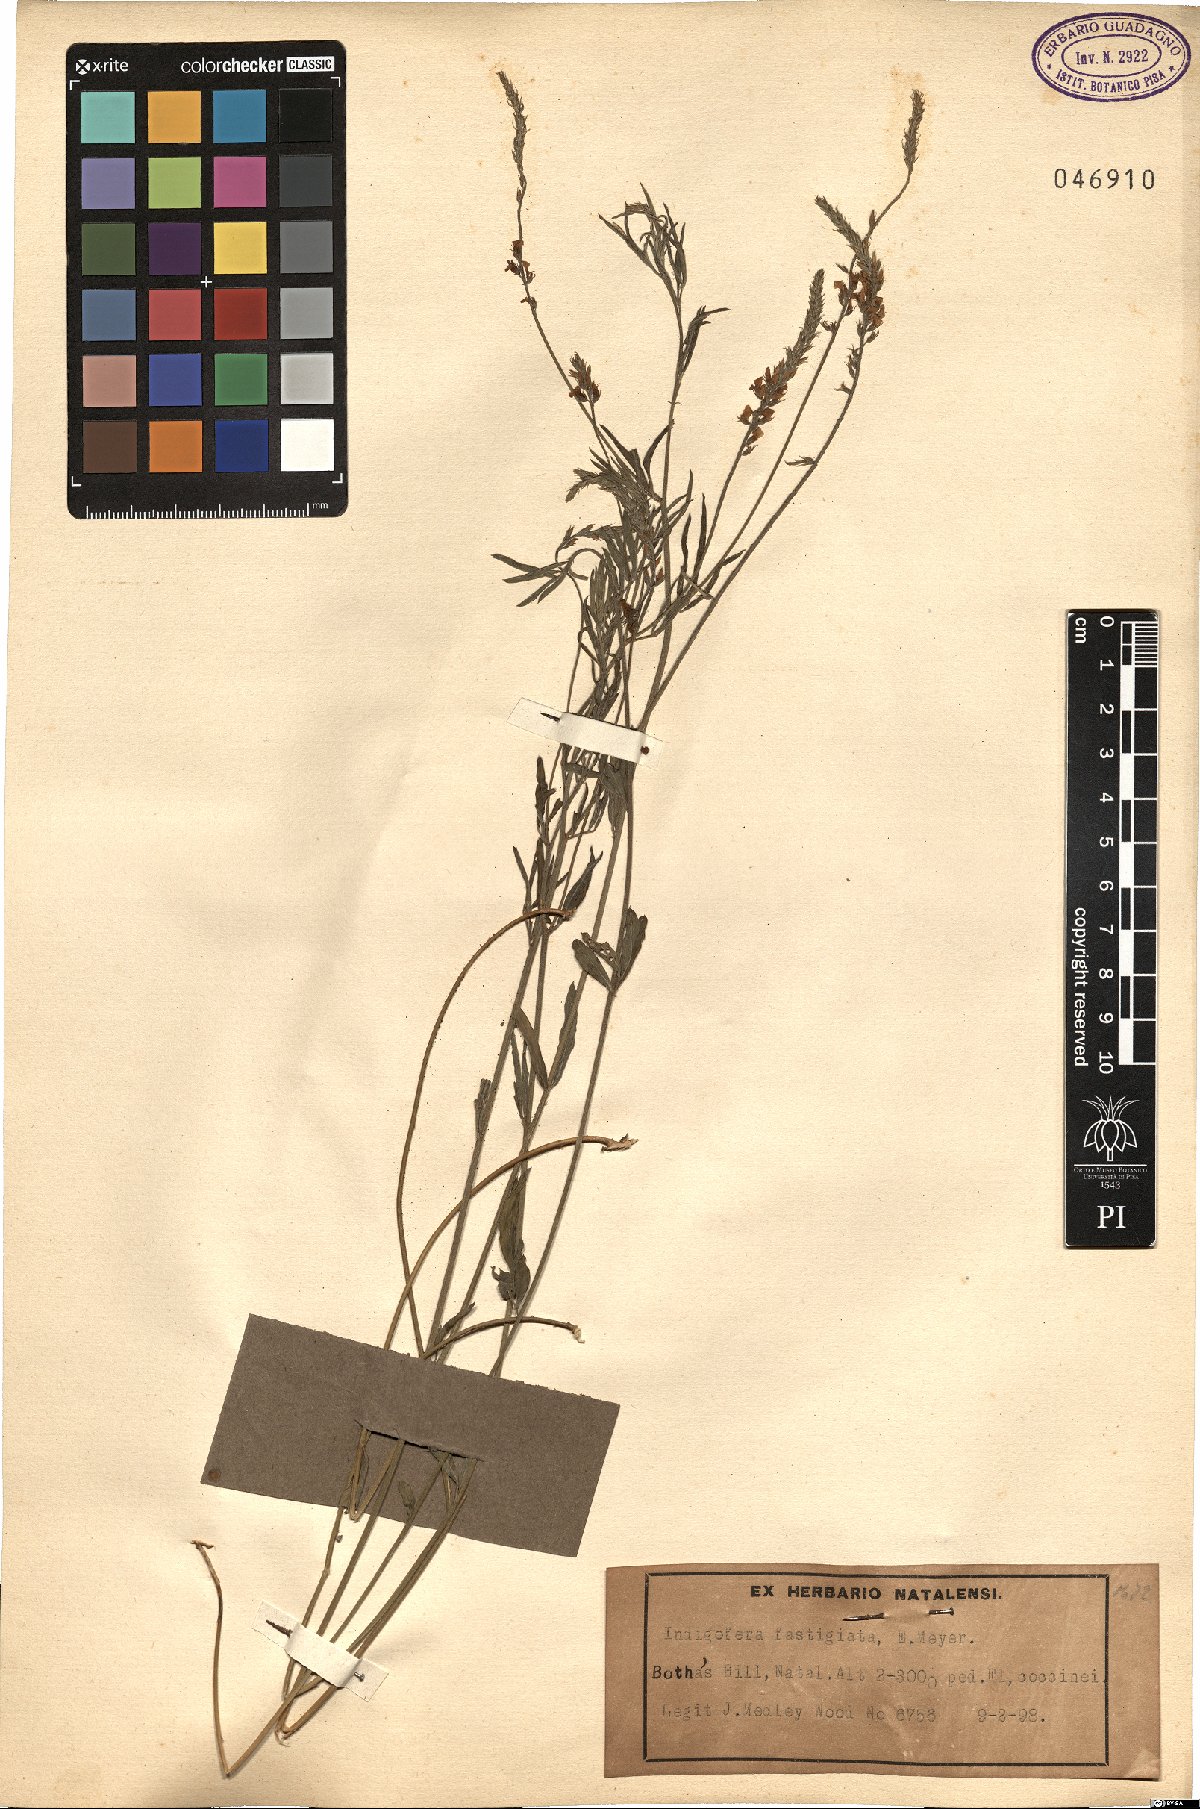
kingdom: Plantae
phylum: Tracheophyta
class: Magnoliopsida
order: Fabales
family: Fabaceae
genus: Indigastrum
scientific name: Indigastrum fastigiatum
